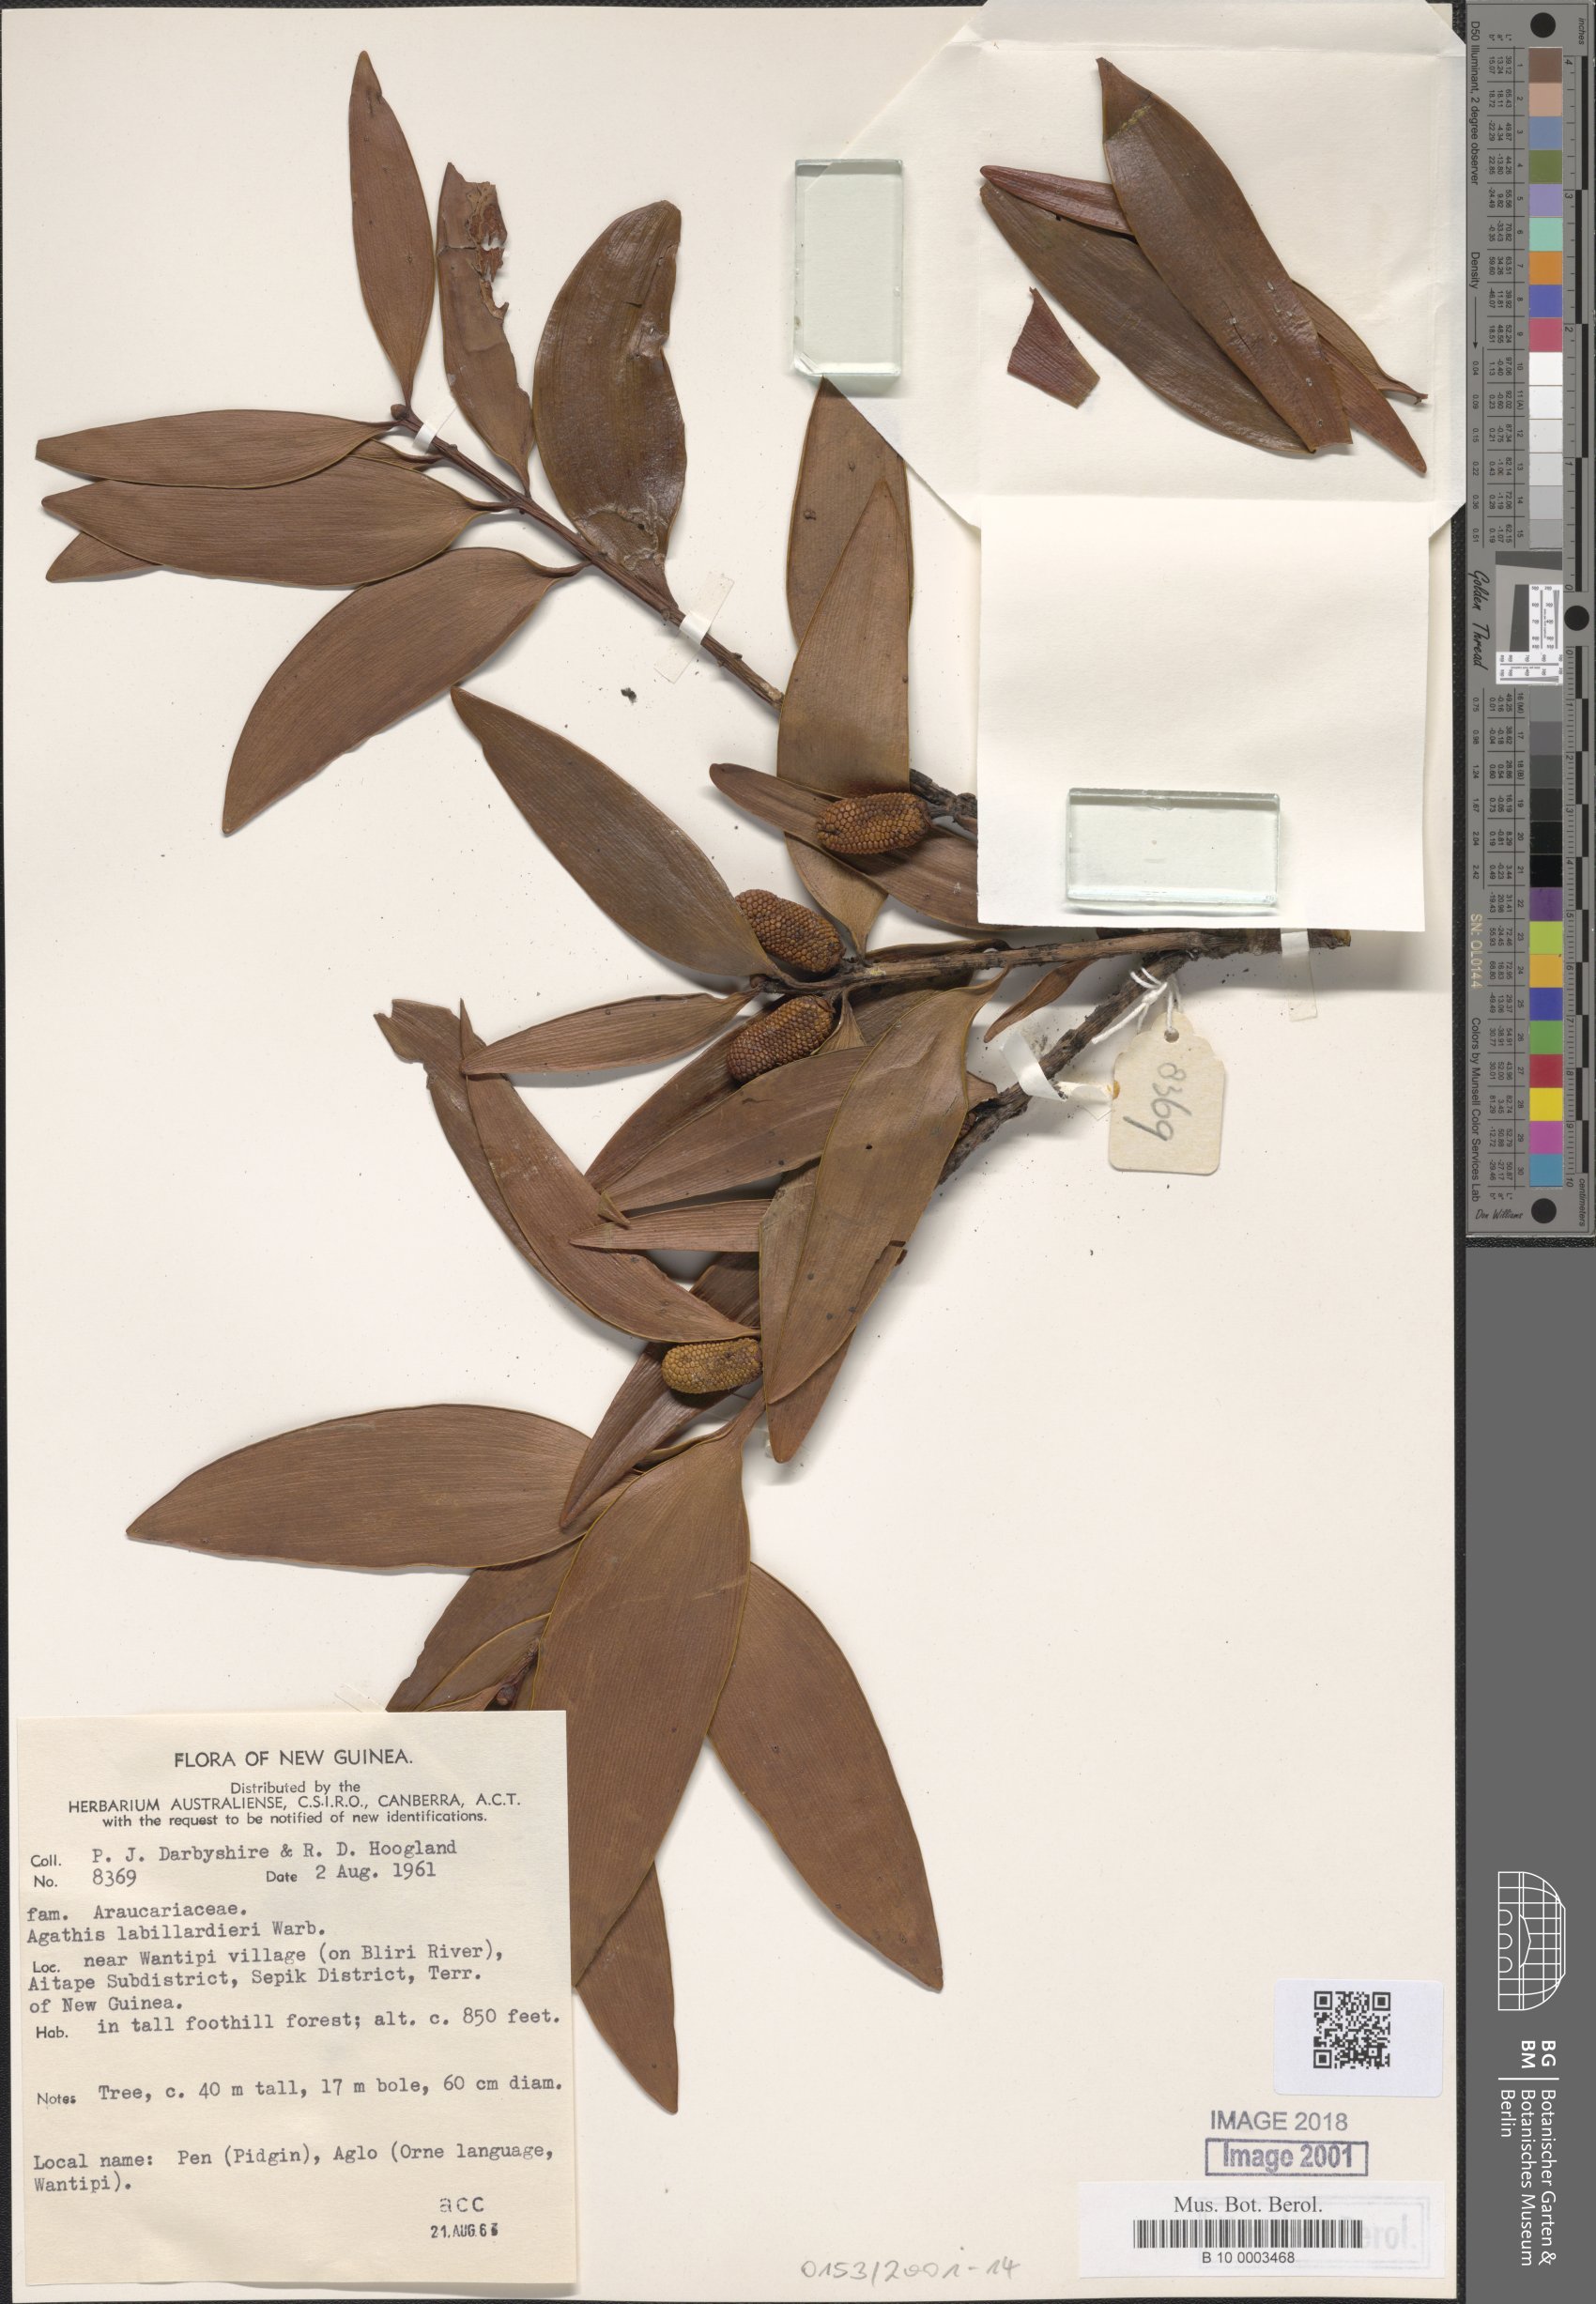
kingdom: Plantae
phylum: Tracheophyta
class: Pinopsida
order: Pinales
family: Araucariaceae
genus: Agathis
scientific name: Agathis labillardierei
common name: New guinea kauri
